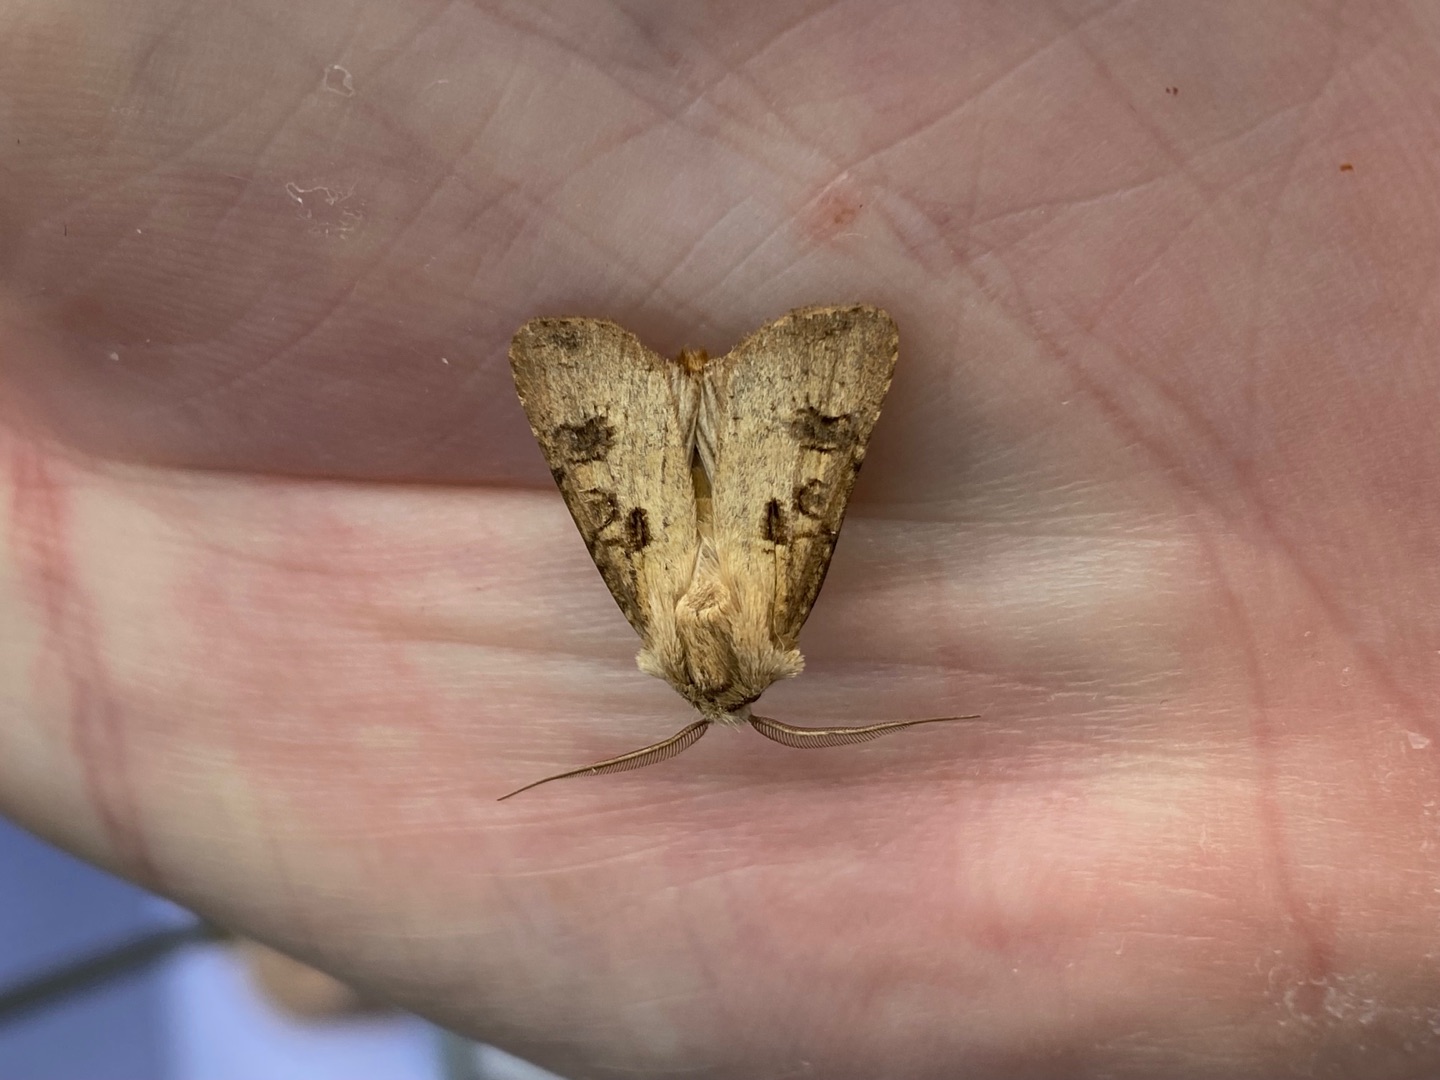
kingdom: Animalia
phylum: Arthropoda
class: Insecta
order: Lepidoptera
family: Noctuidae
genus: Agrotis
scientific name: Agrotis clavis
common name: Nøgle-landmand
